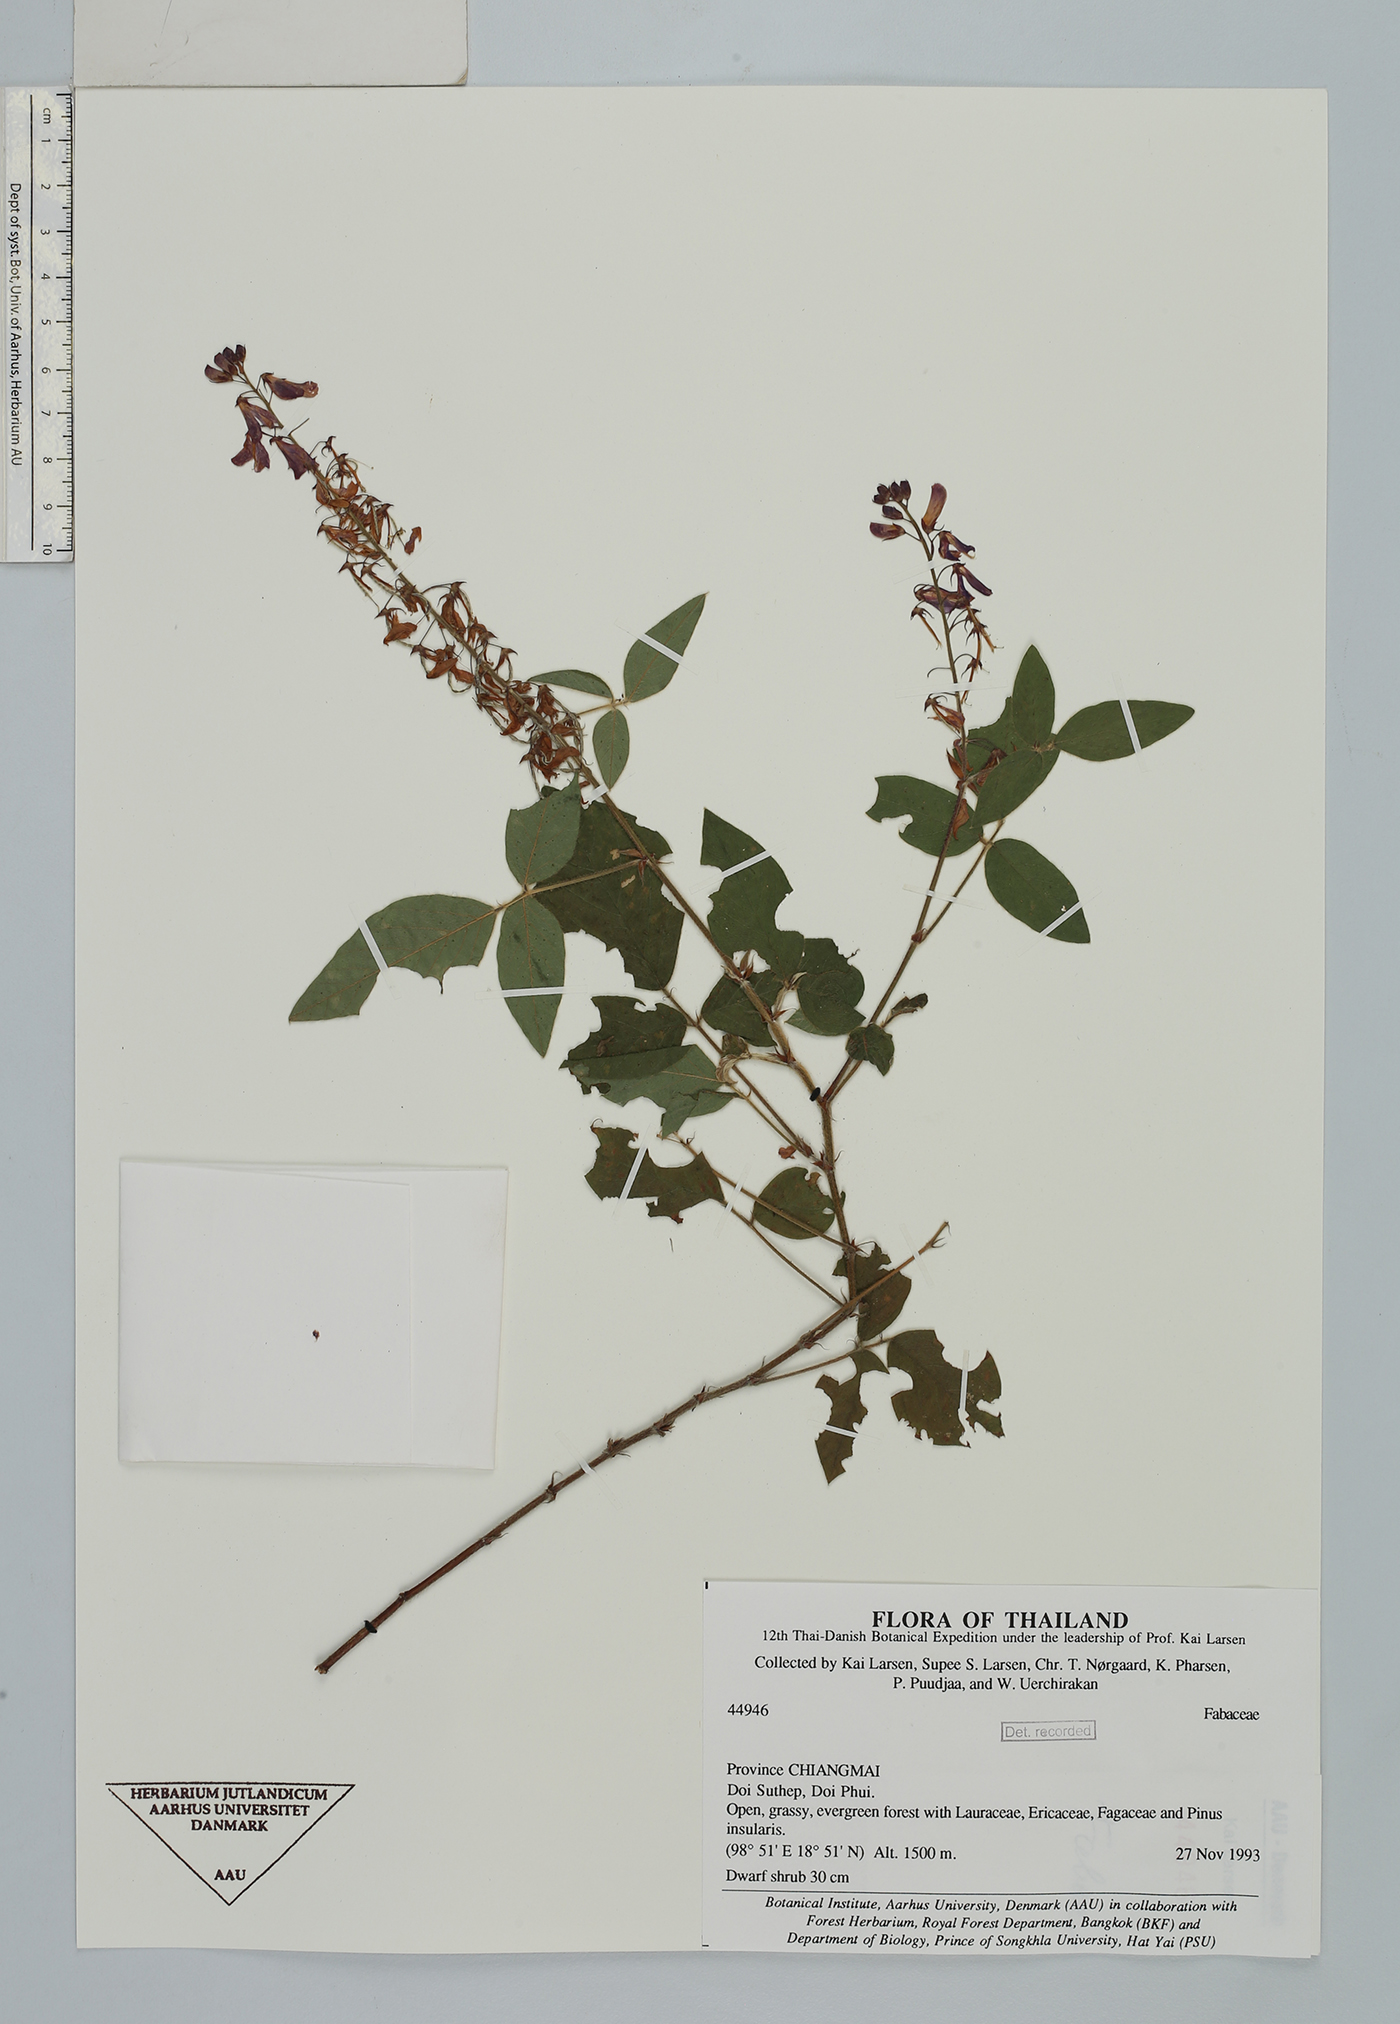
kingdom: Plantae
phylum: Tracheophyta
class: Magnoliopsida
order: Fabales
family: Fabaceae
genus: Desmodium
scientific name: Desmodium uncinatum
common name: Silverleaf desmodium
